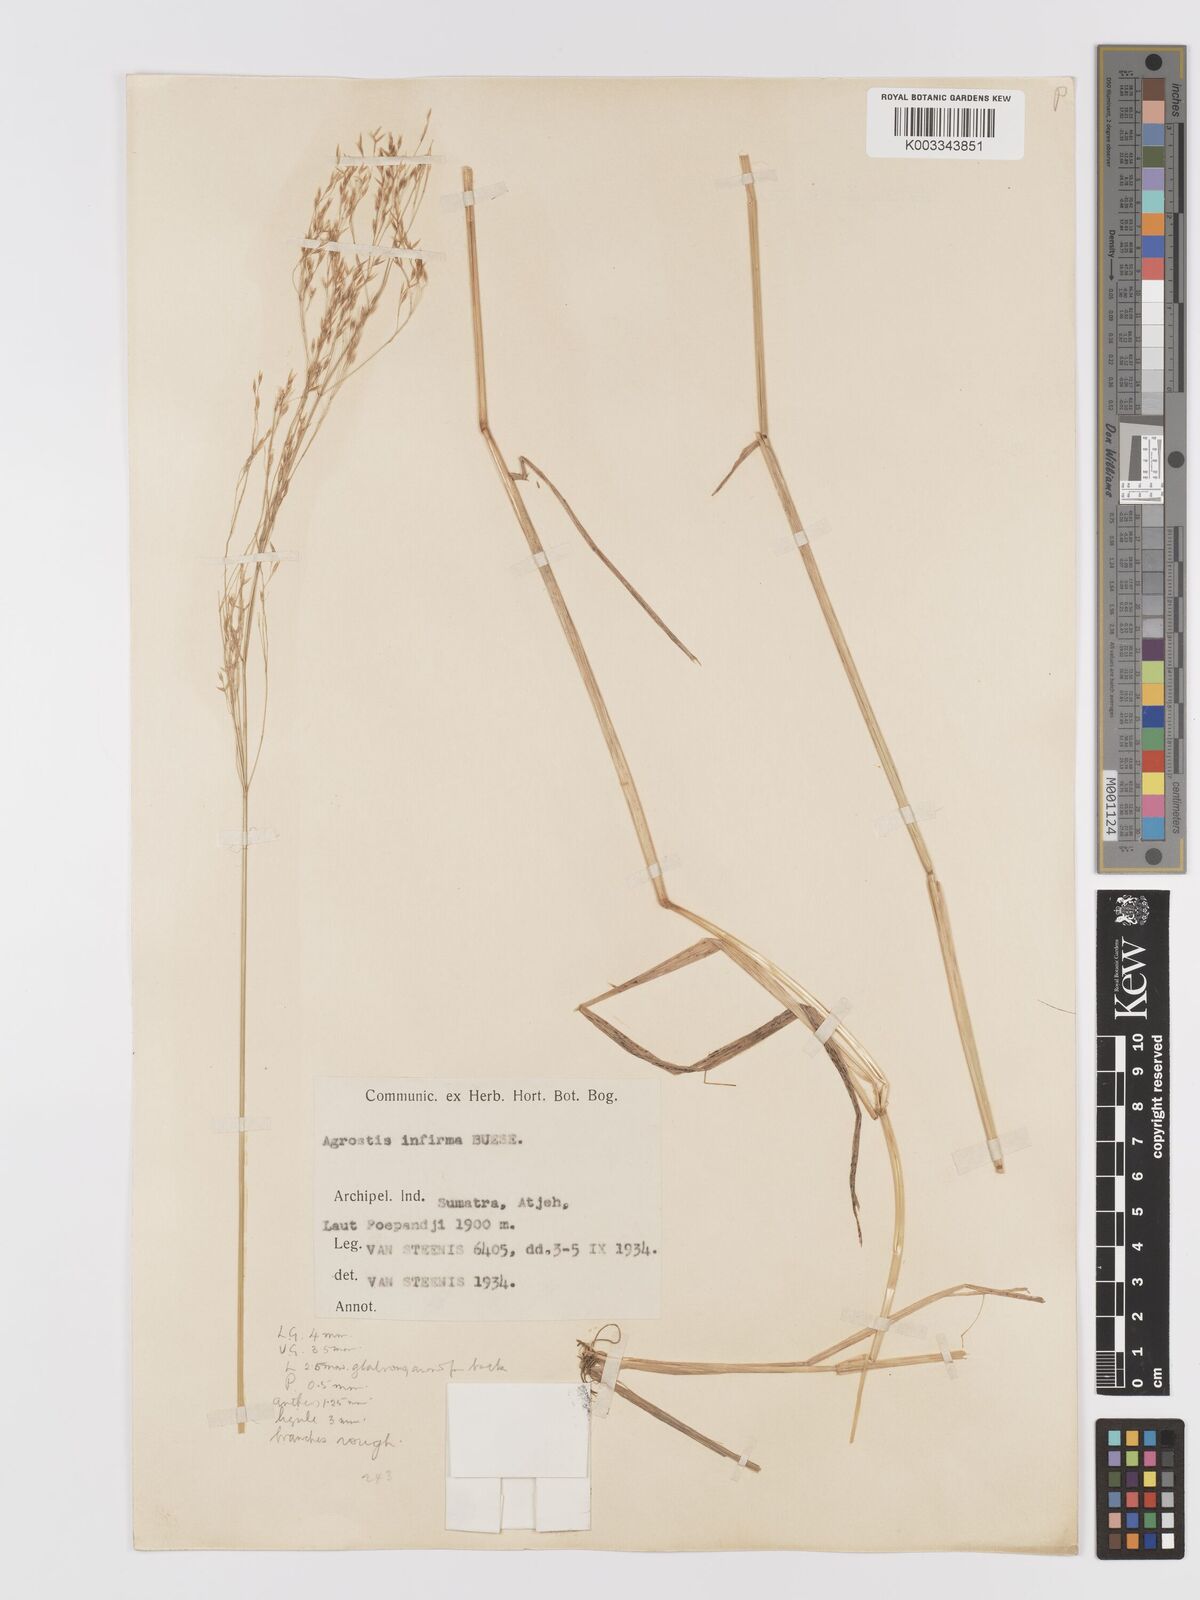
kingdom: Plantae
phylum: Tracheophyta
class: Liliopsida
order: Poales
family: Poaceae
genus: Agrostis
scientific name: Agrostis infirma
